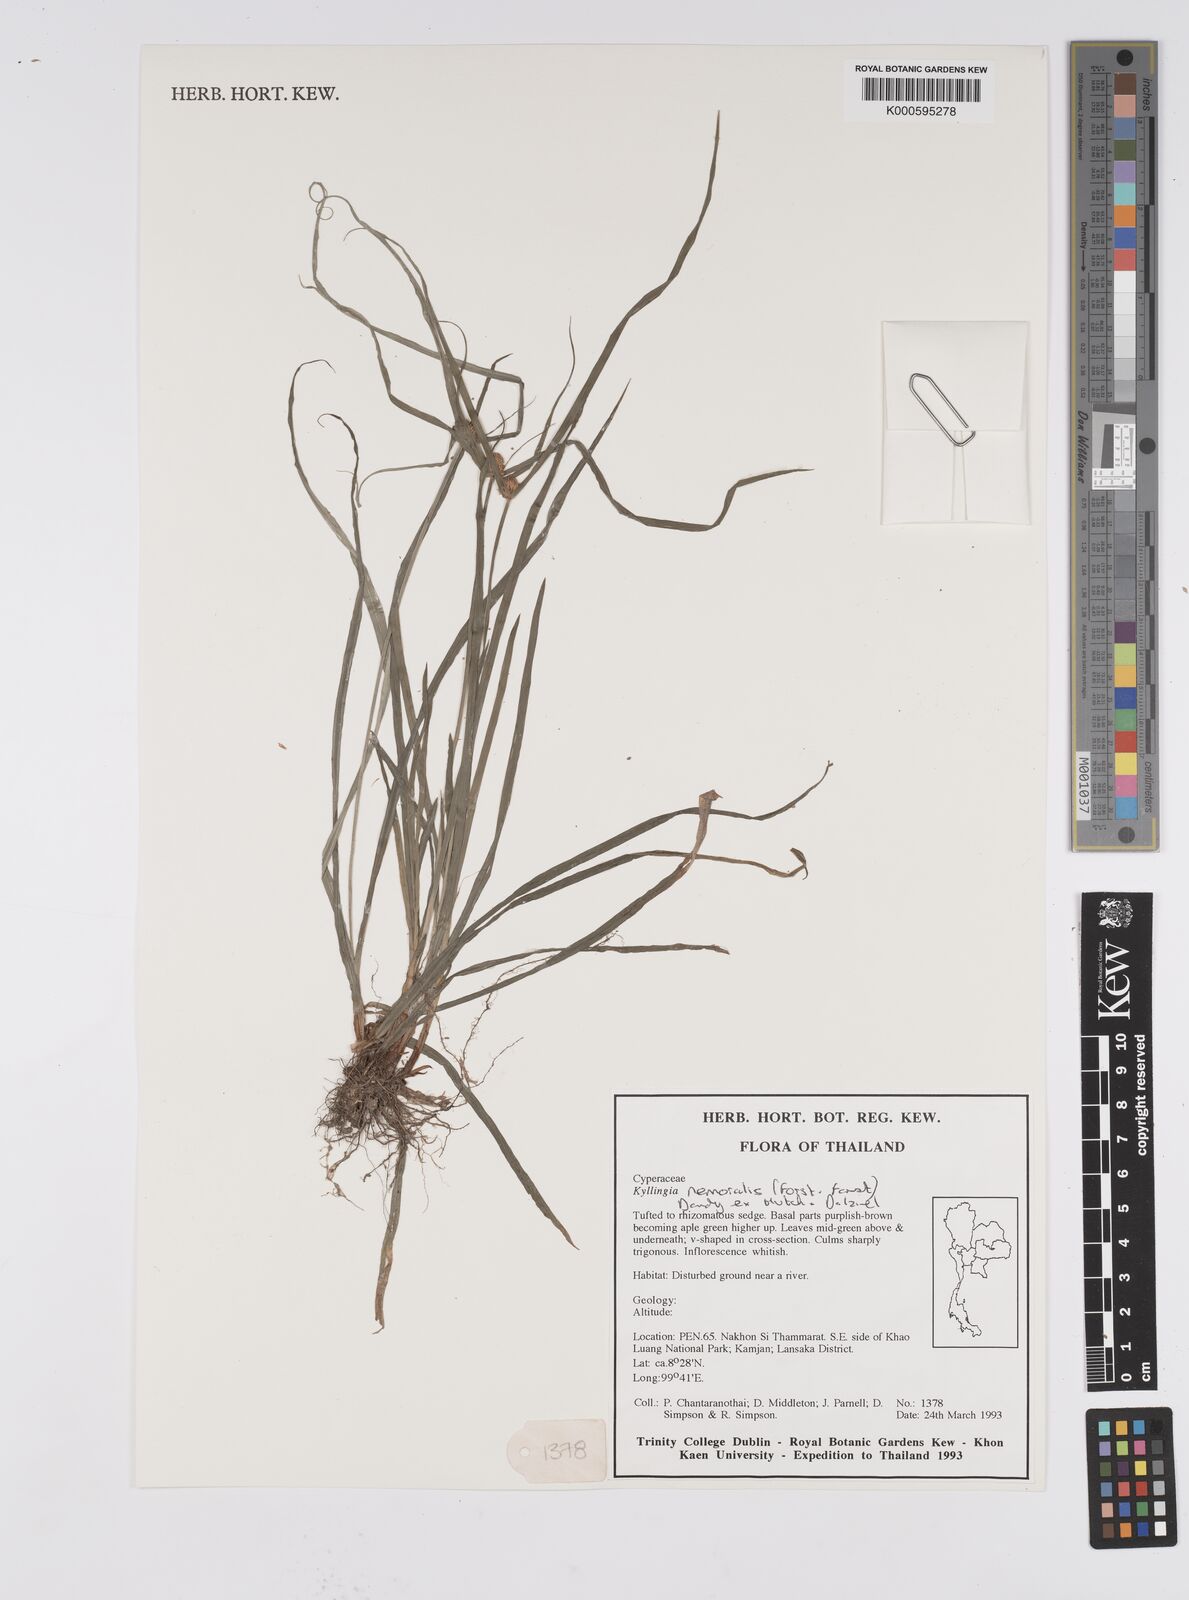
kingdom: Plantae
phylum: Tracheophyta
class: Liliopsida
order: Poales
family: Cyperaceae
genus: Cyperus
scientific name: Cyperus mindorensis
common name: Flatsedge
